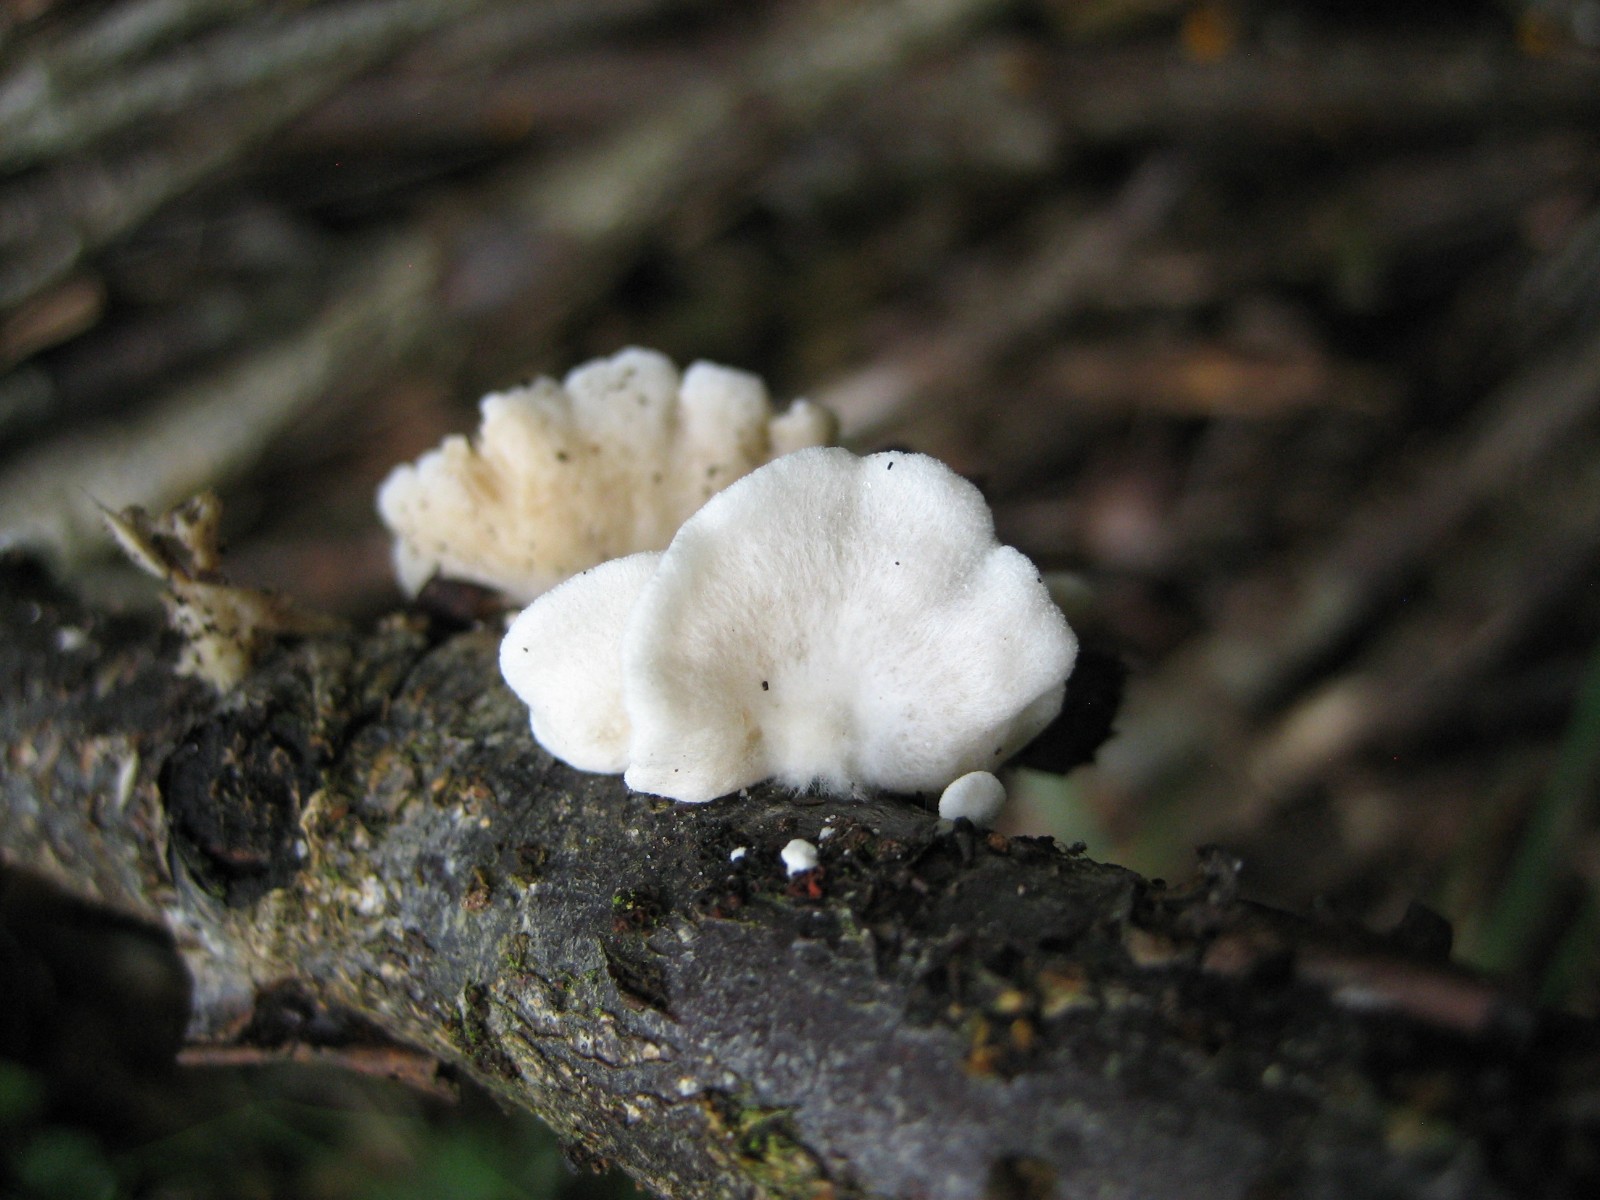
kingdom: Fungi
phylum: Basidiomycota
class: Agaricomycetes
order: Agaricales
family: Crepidotaceae
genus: Crepidotus
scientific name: Crepidotus
